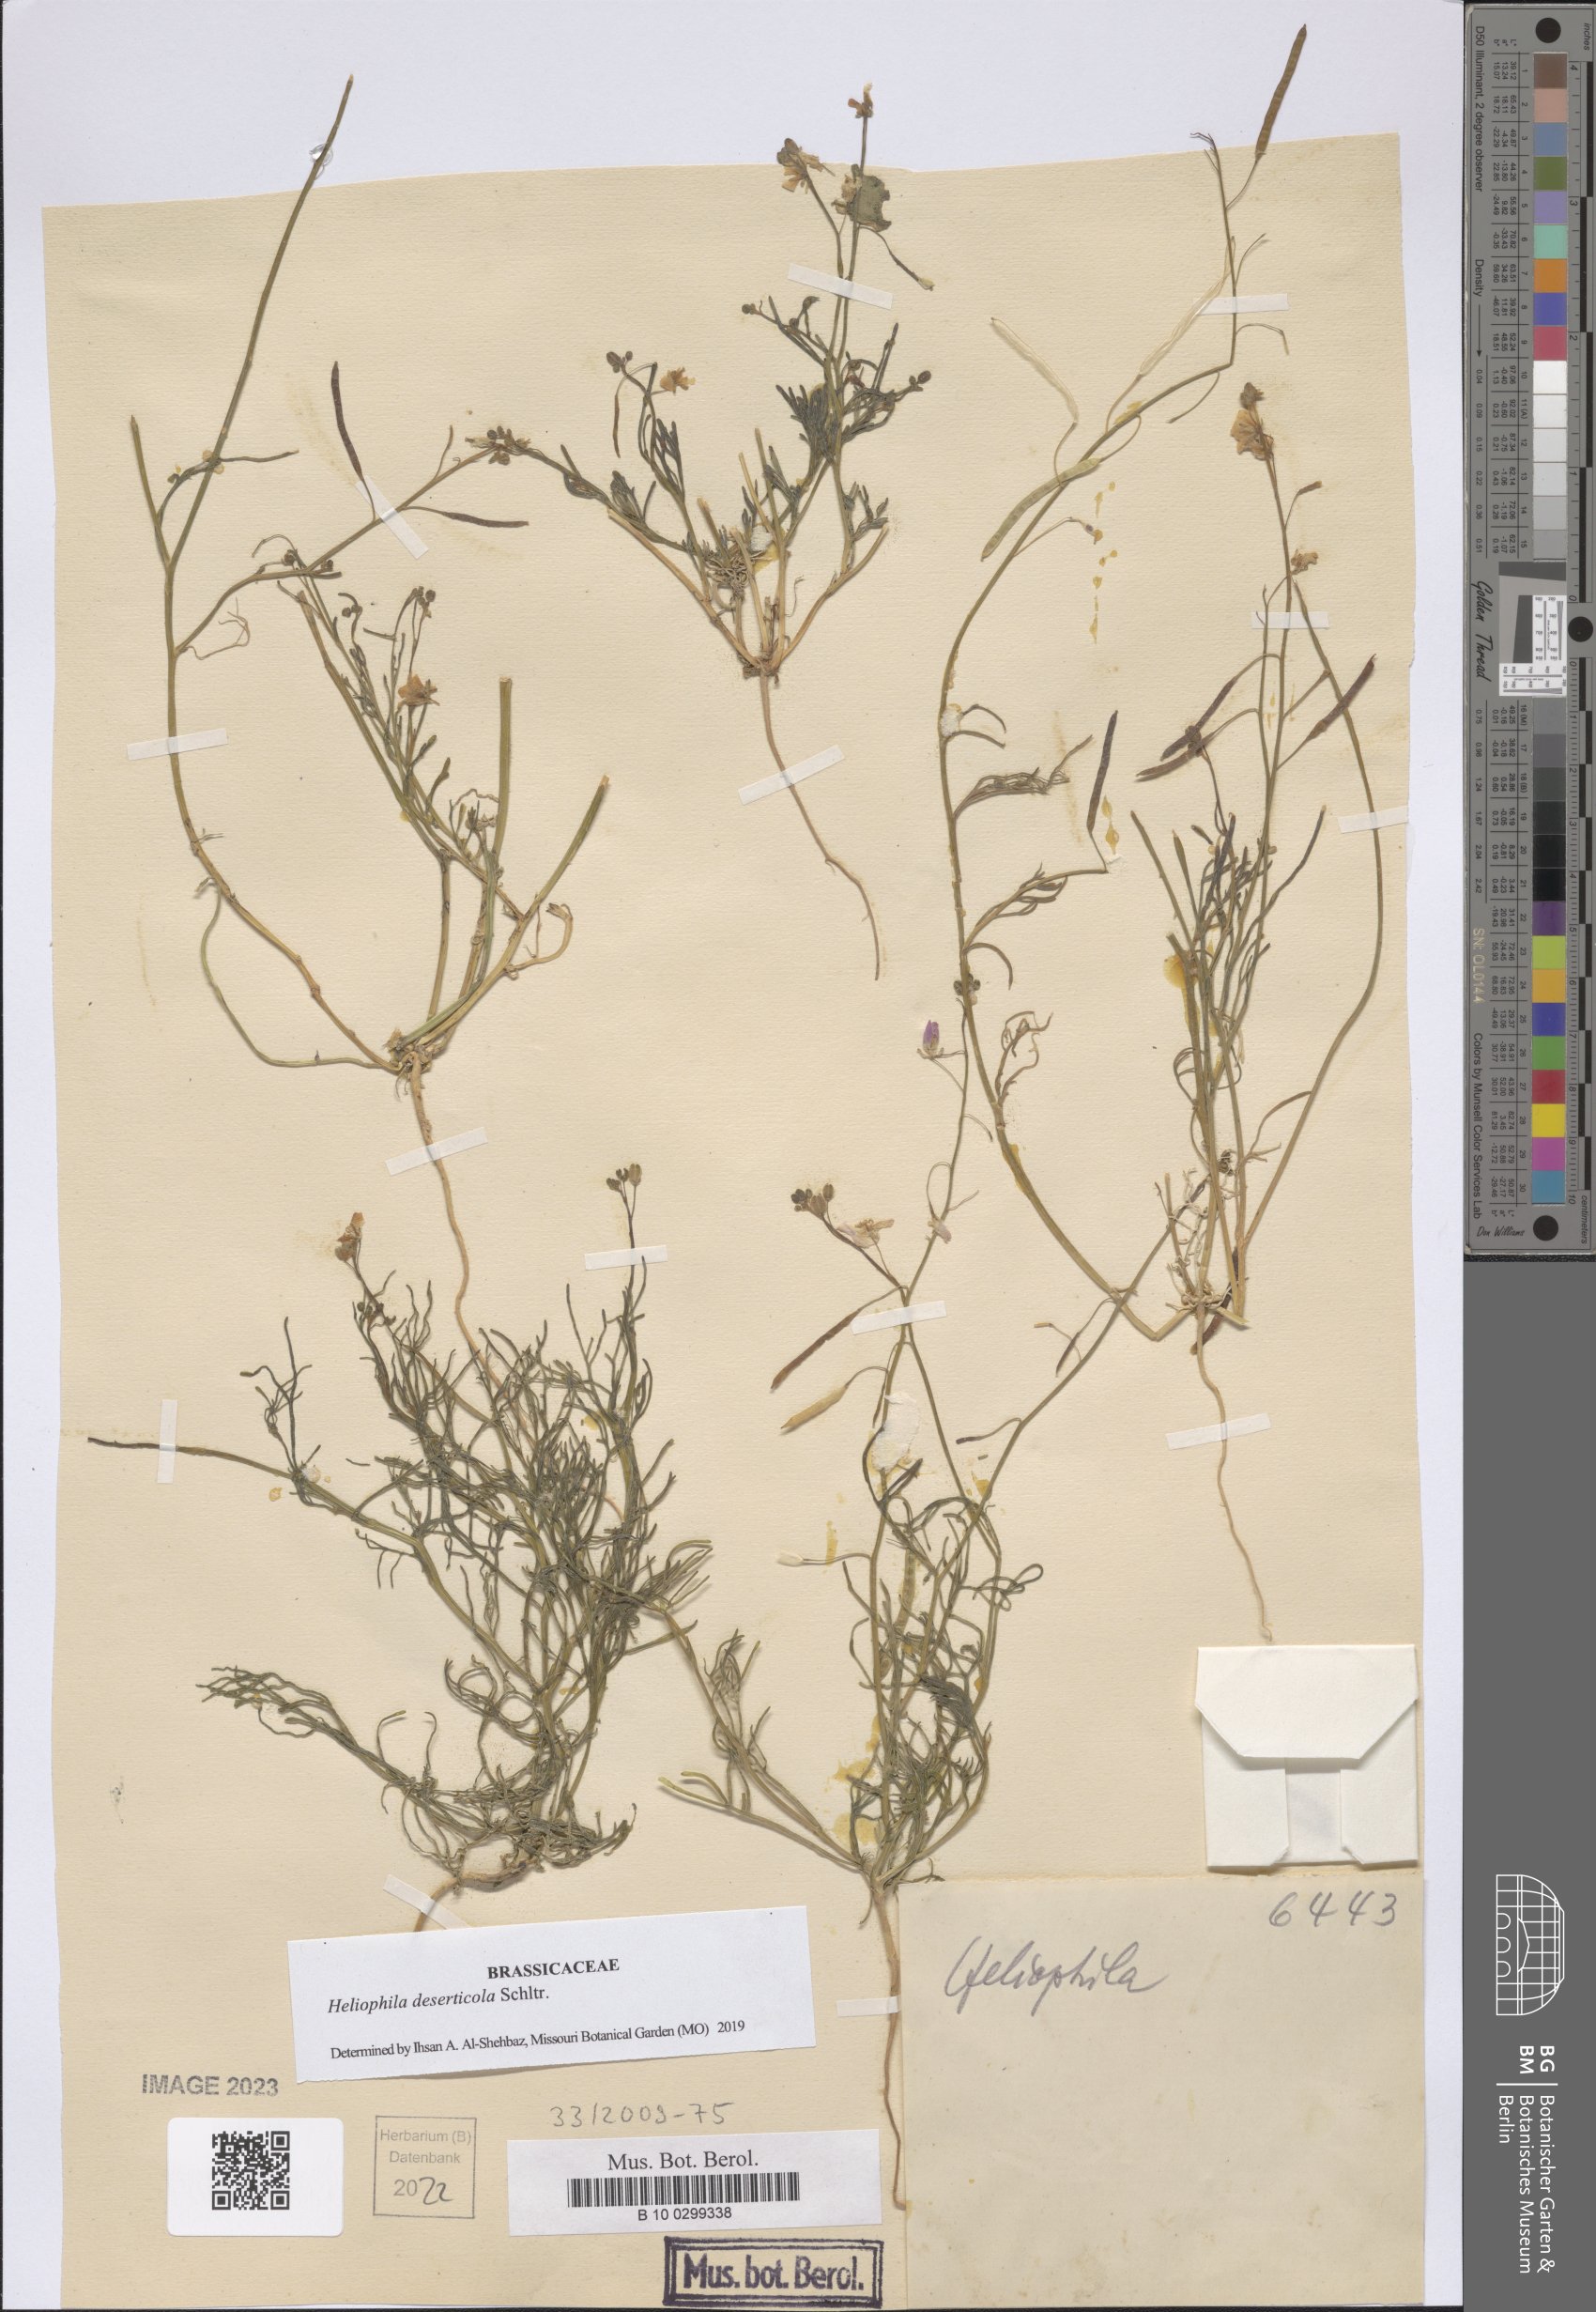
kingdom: Plantae
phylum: Tracheophyta
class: Magnoliopsida
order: Brassicales
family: Brassicaceae
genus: Heliophila
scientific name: Heliophila deserticola
